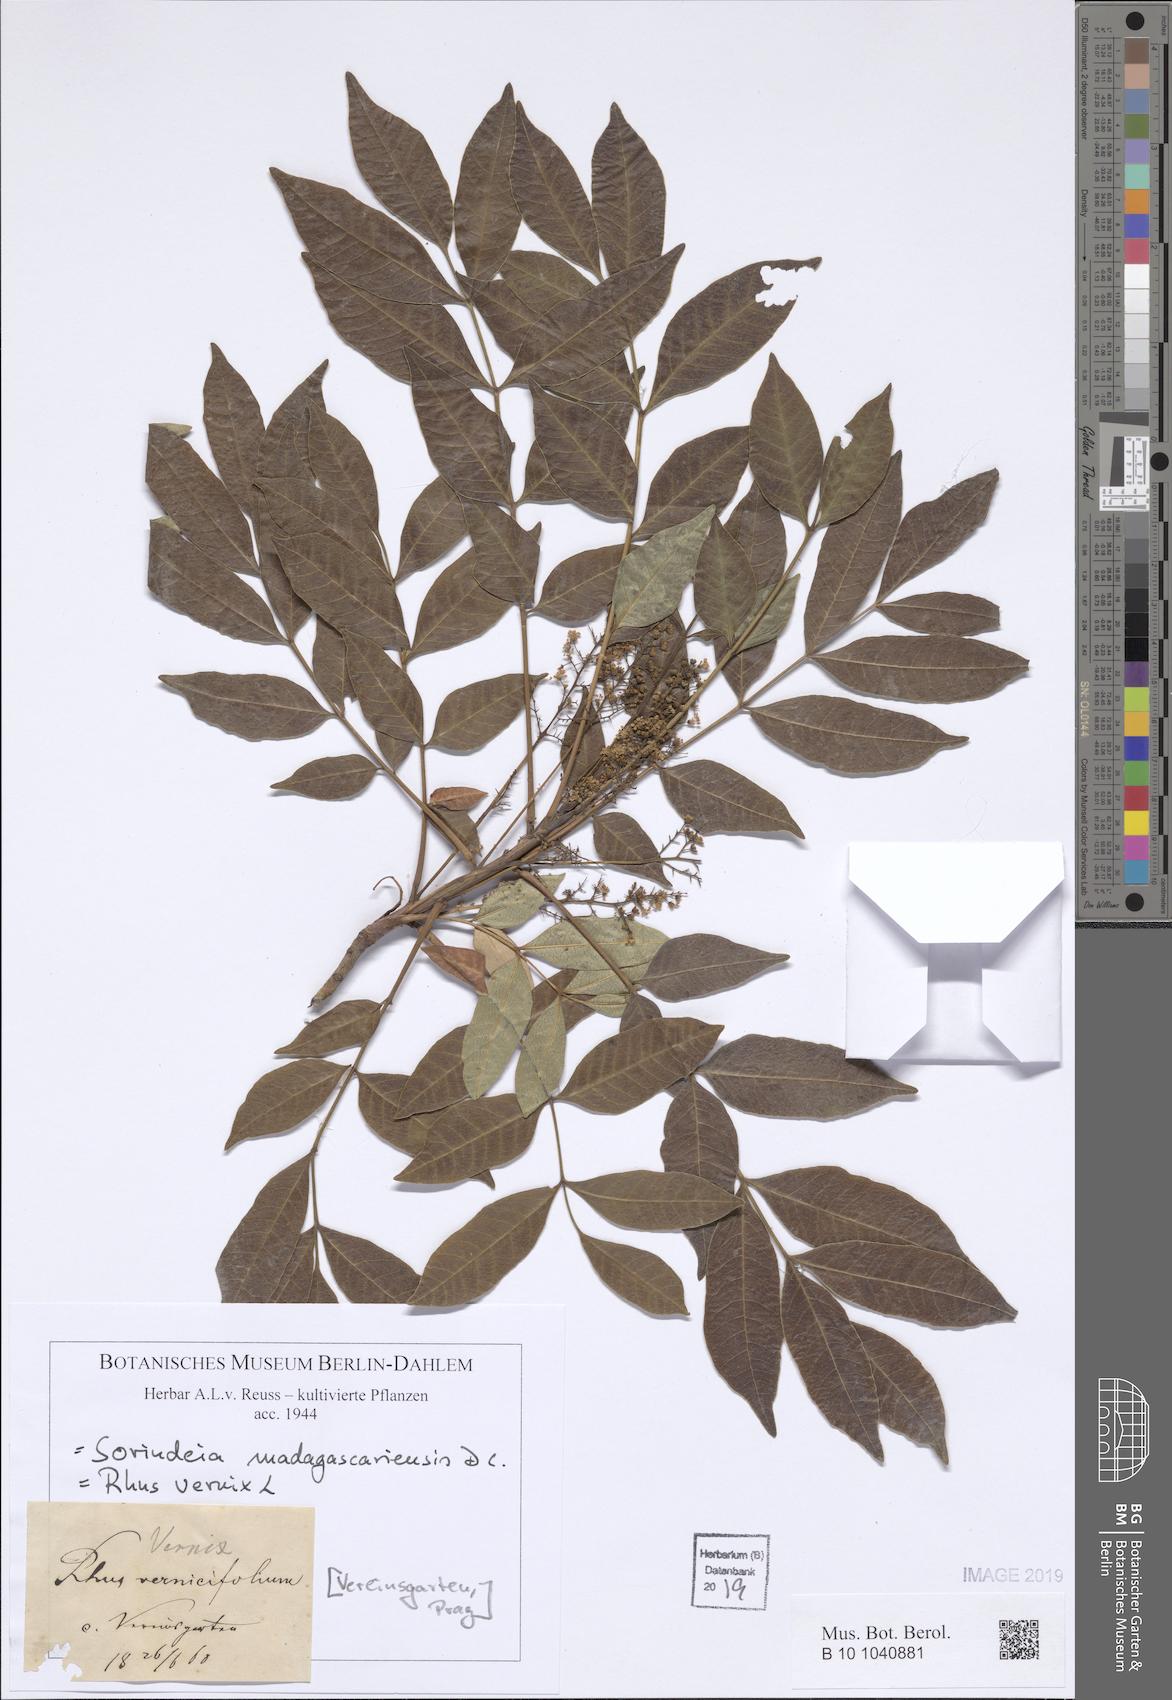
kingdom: Plantae
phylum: Tracheophyta
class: Magnoliopsida
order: Sapindales
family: Anacardiaceae
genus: Sorindeia
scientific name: Sorindeia madagascariensis
